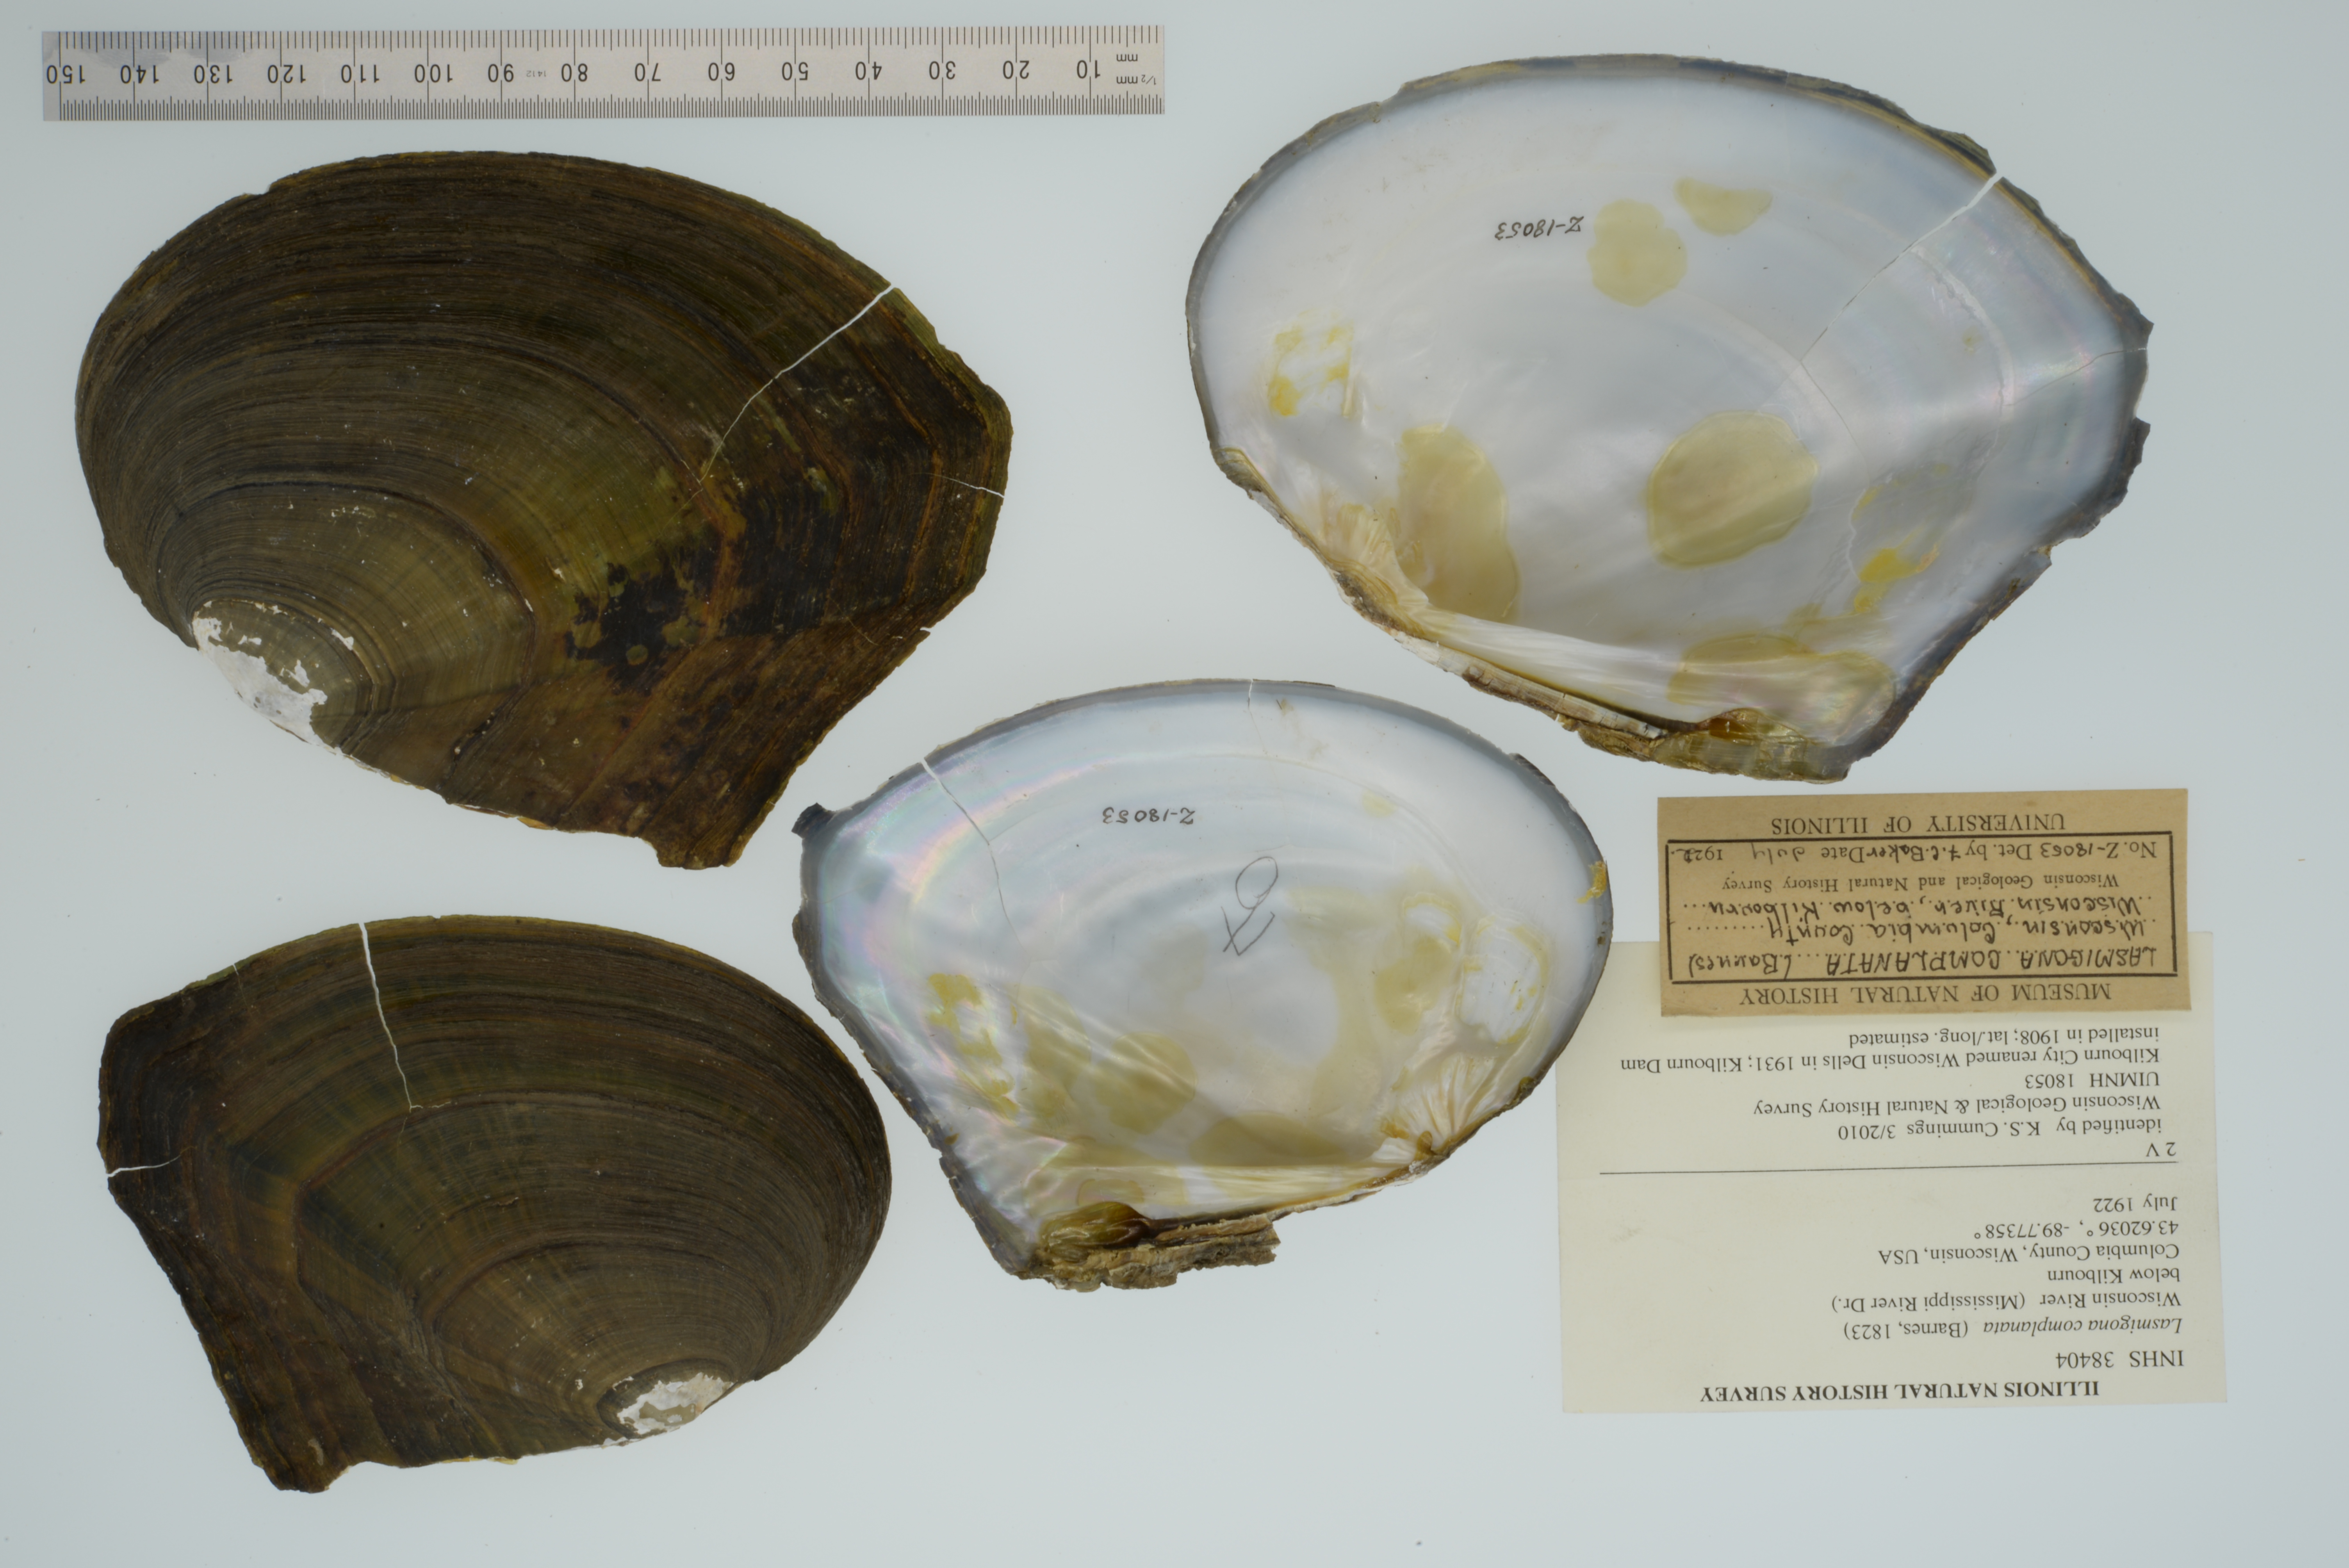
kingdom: Animalia
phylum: Mollusca
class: Bivalvia
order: Unionida
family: Unionidae
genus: Lasmigona
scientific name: Lasmigona complanata
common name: White heelsplitter
